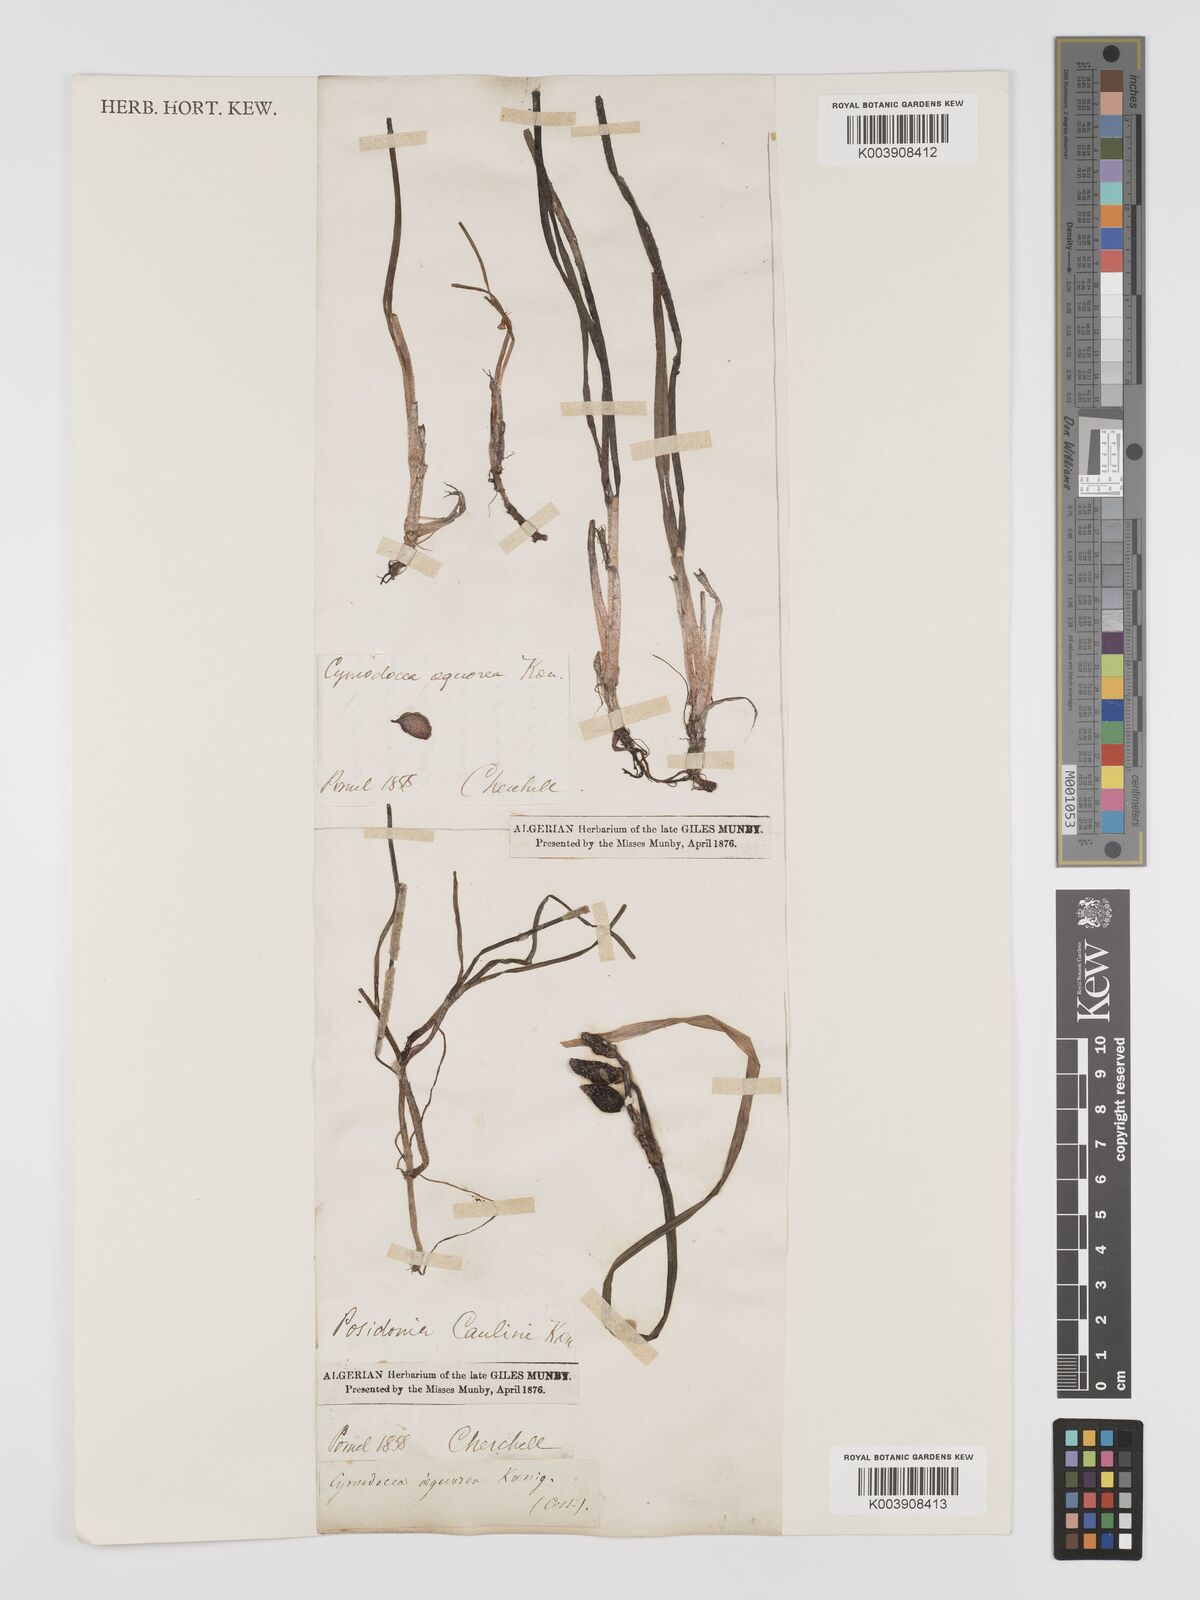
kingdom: Plantae
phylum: Tracheophyta
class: Liliopsida
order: Alismatales
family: Posidoniaceae
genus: Posidonia
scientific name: Posidonia
